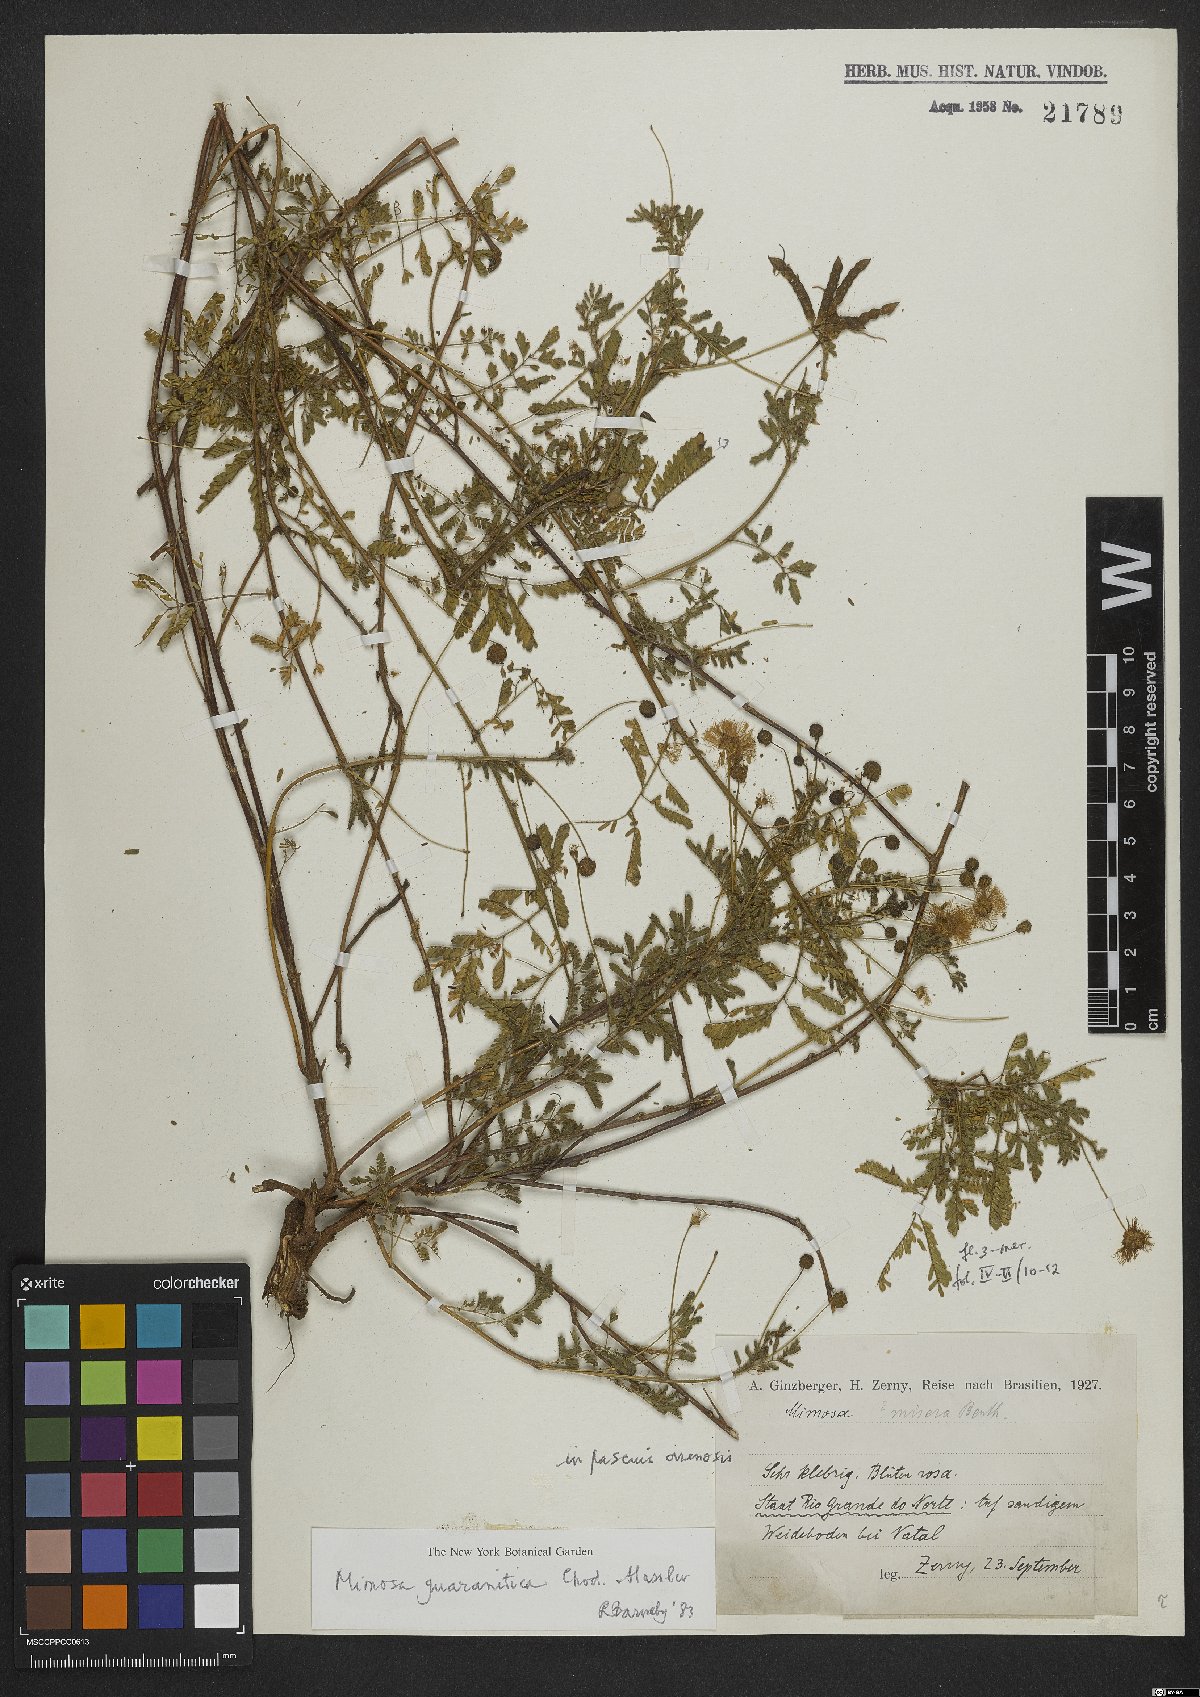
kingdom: Plantae
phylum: Tracheophyta
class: Magnoliopsida
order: Fabales
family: Fabaceae
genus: Mimosa
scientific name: Mimosa guaranitica
